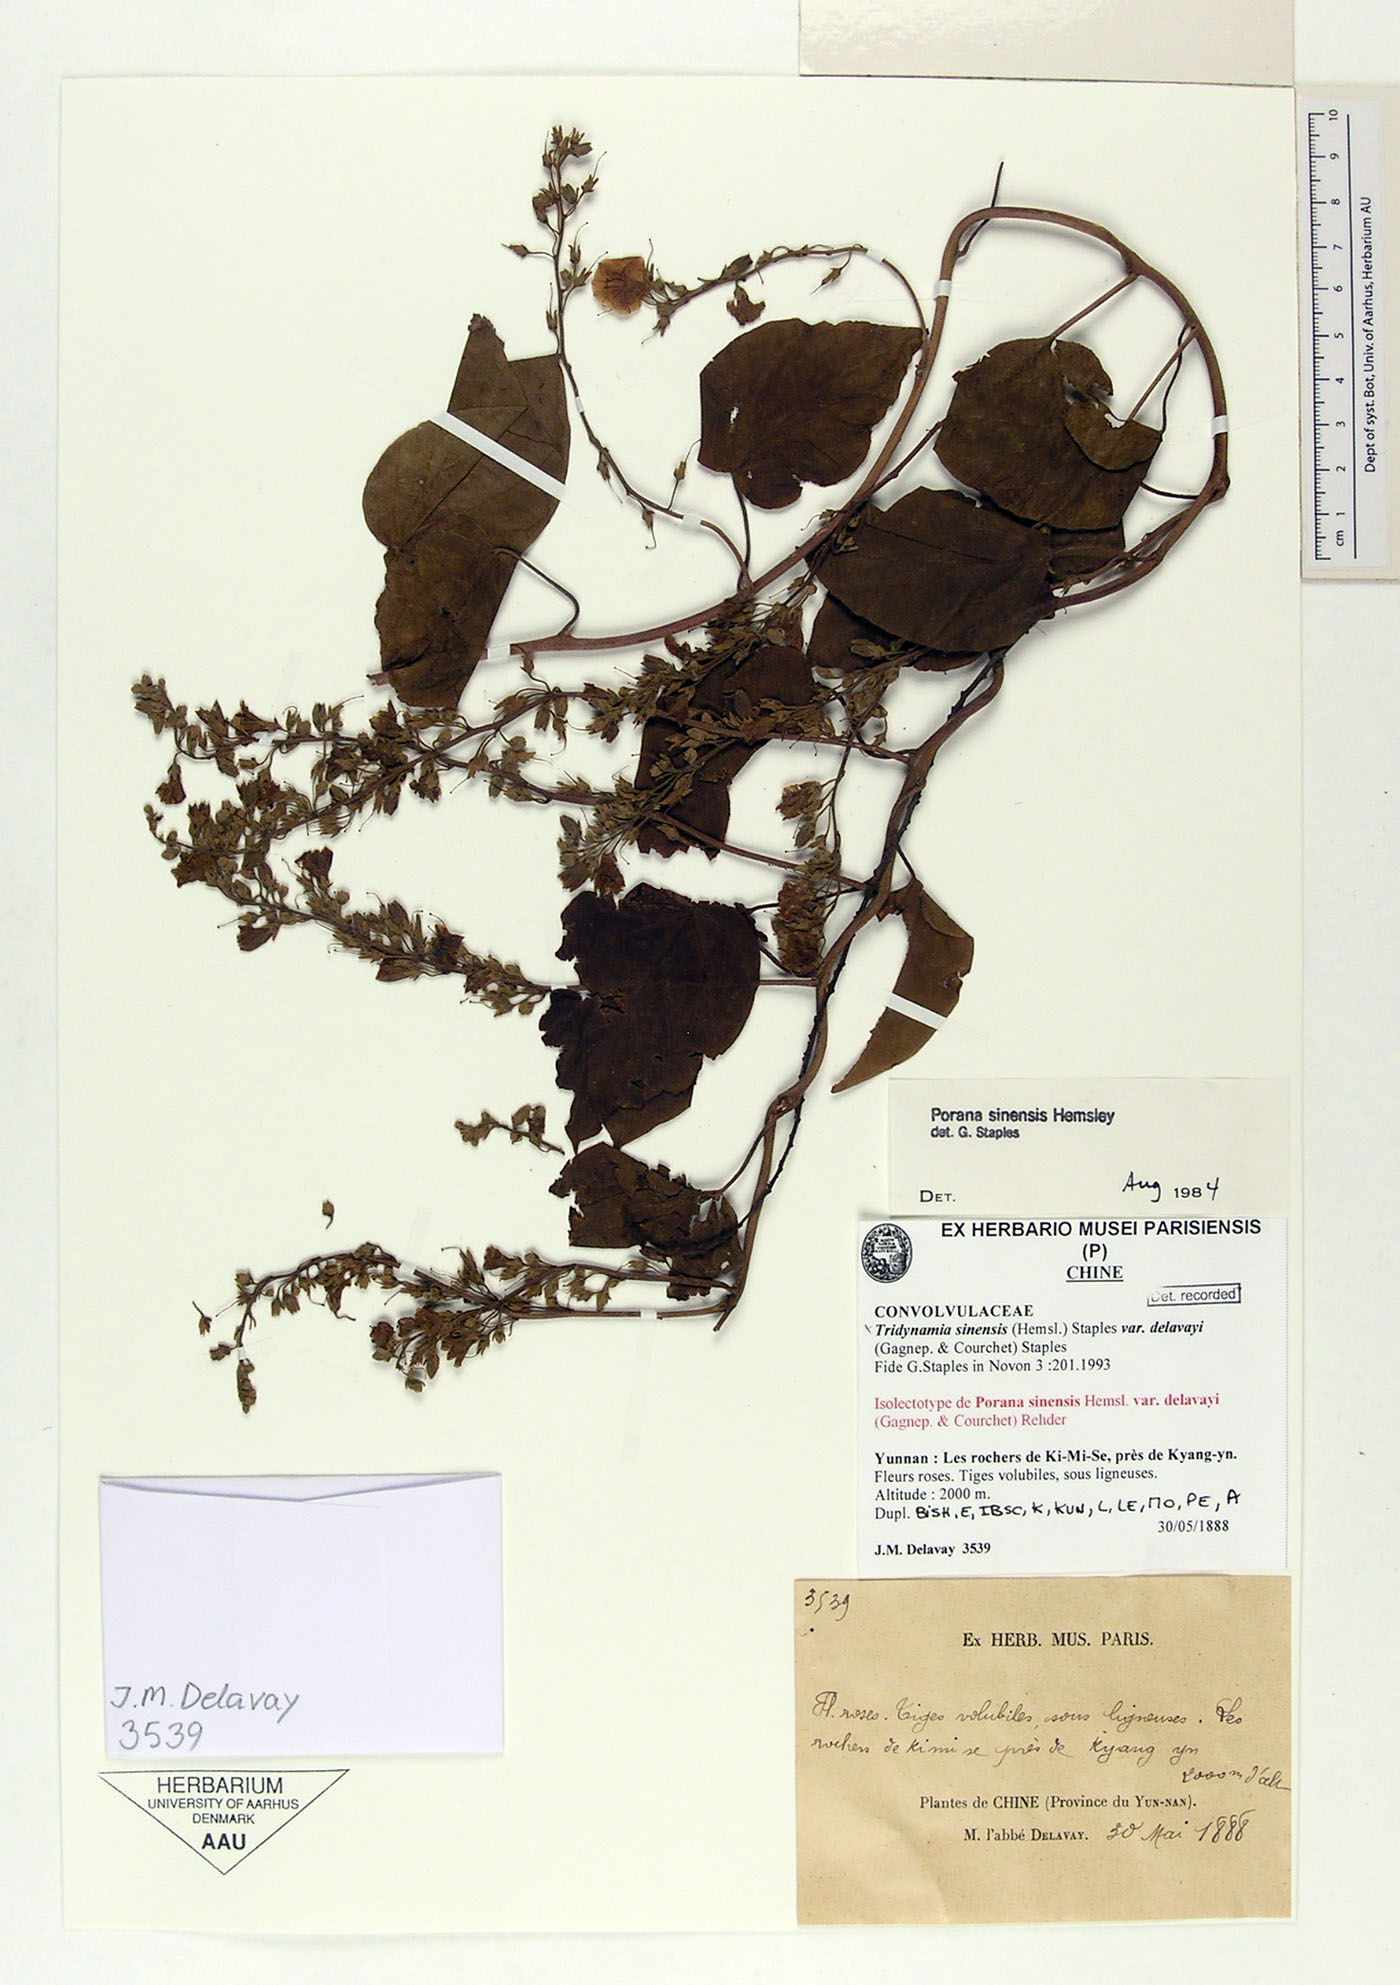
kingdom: Plantae
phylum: Tracheophyta
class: Magnoliopsida
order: Solanales
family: Convolvulaceae
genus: Tridynamia
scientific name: Tridynamia sinensis
